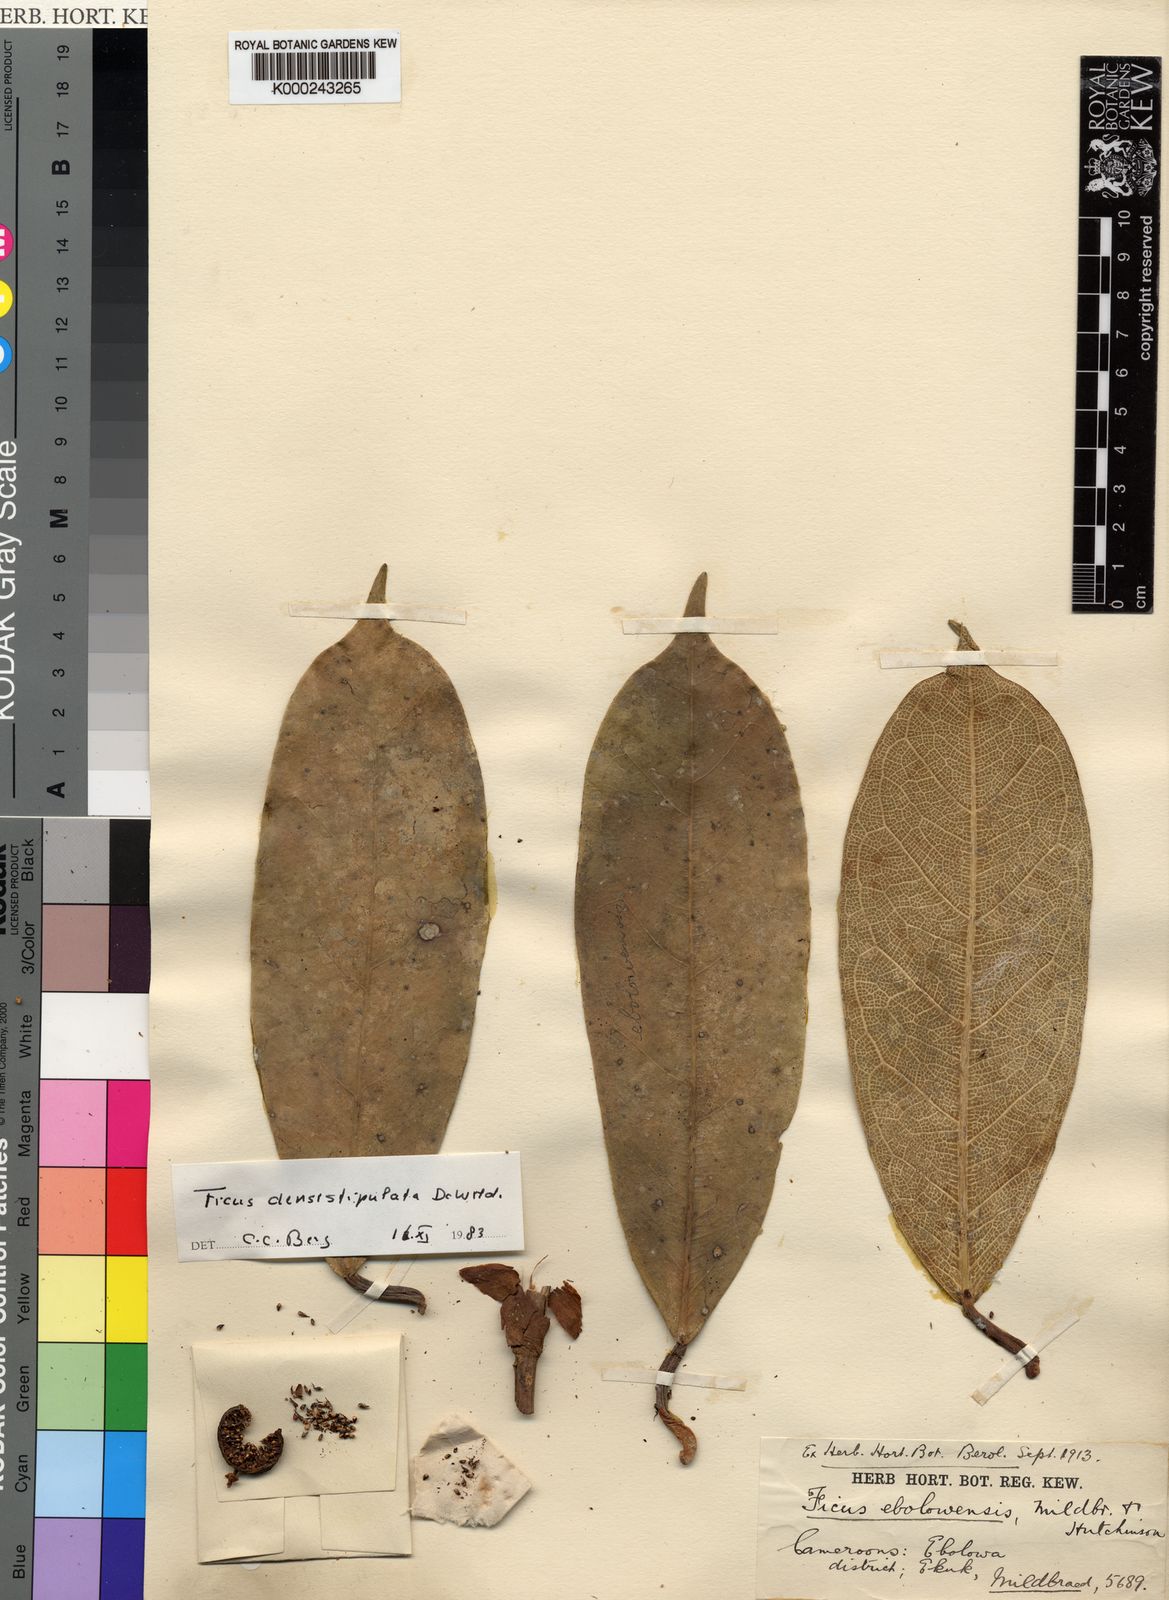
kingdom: Plantae
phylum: Tracheophyta
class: Magnoliopsida
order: Rosales
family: Moraceae
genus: Ficus
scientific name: Ficus densistipulata
